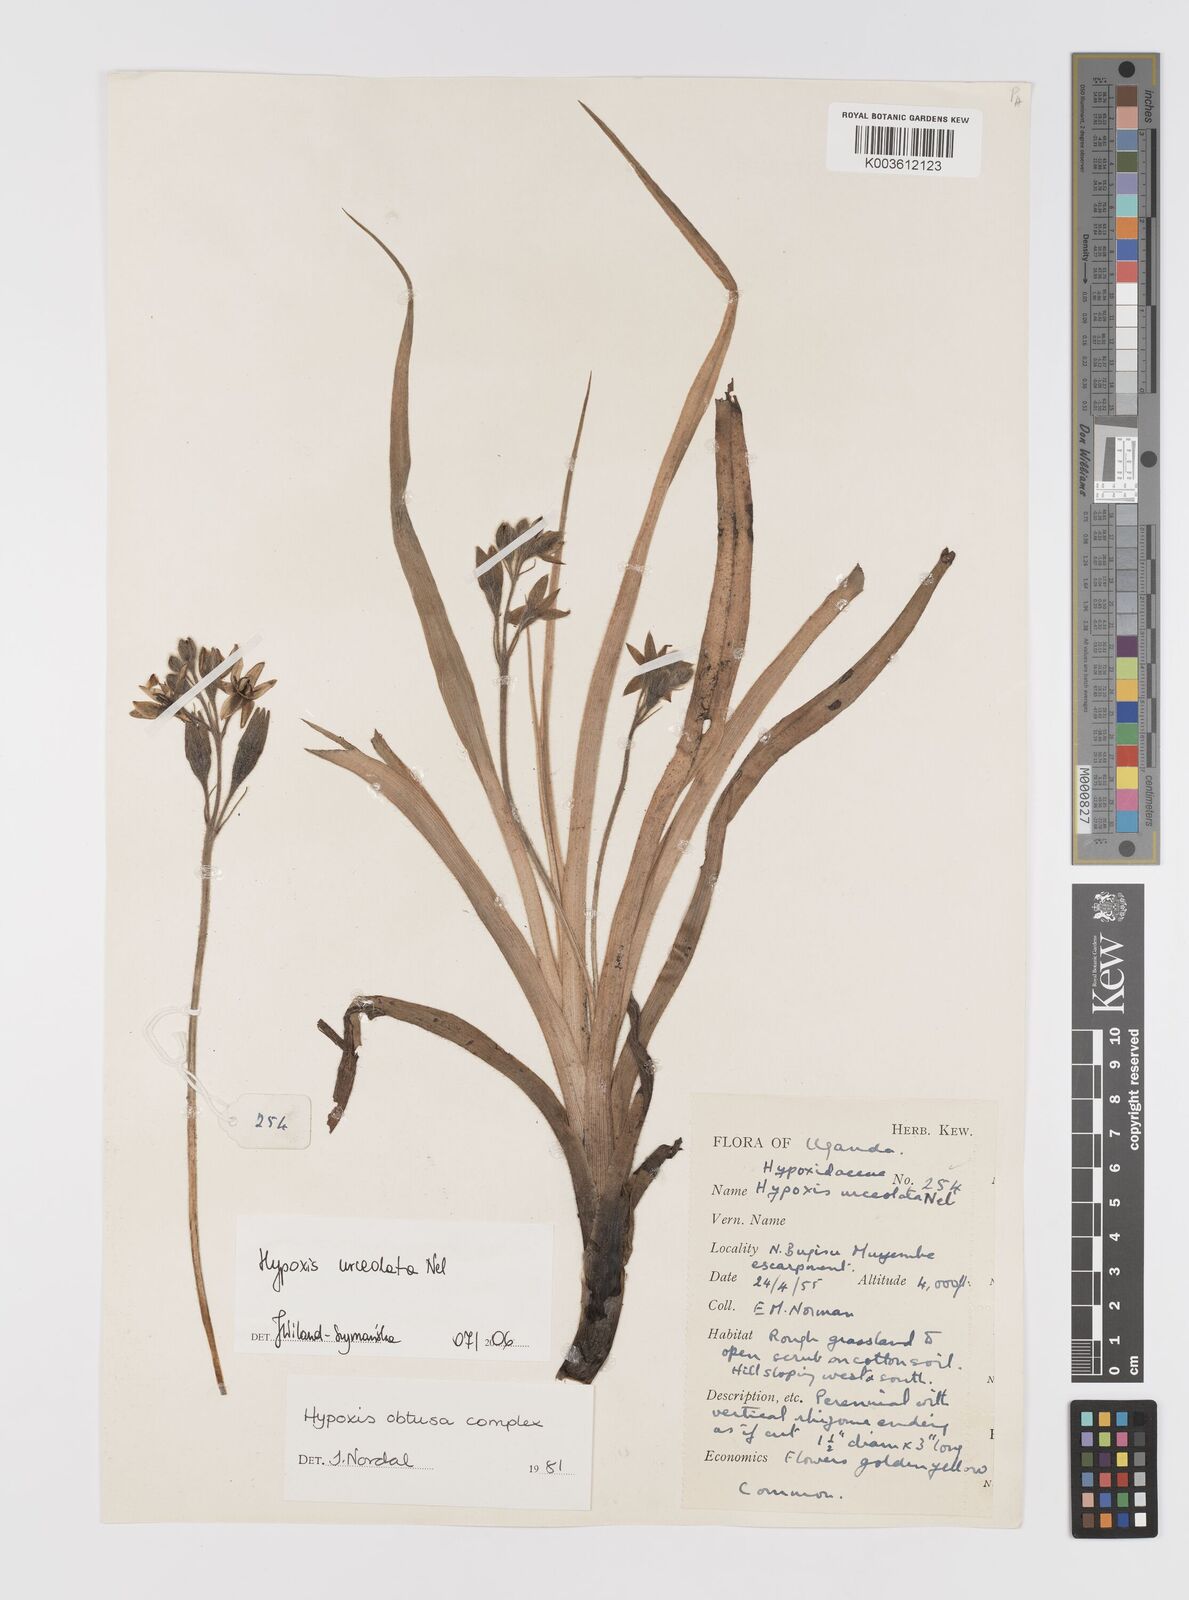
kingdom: Plantae
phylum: Tracheophyta
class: Liliopsida
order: Asparagales
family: Hypoxidaceae
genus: Hypoxis
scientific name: Hypoxis urceolata
